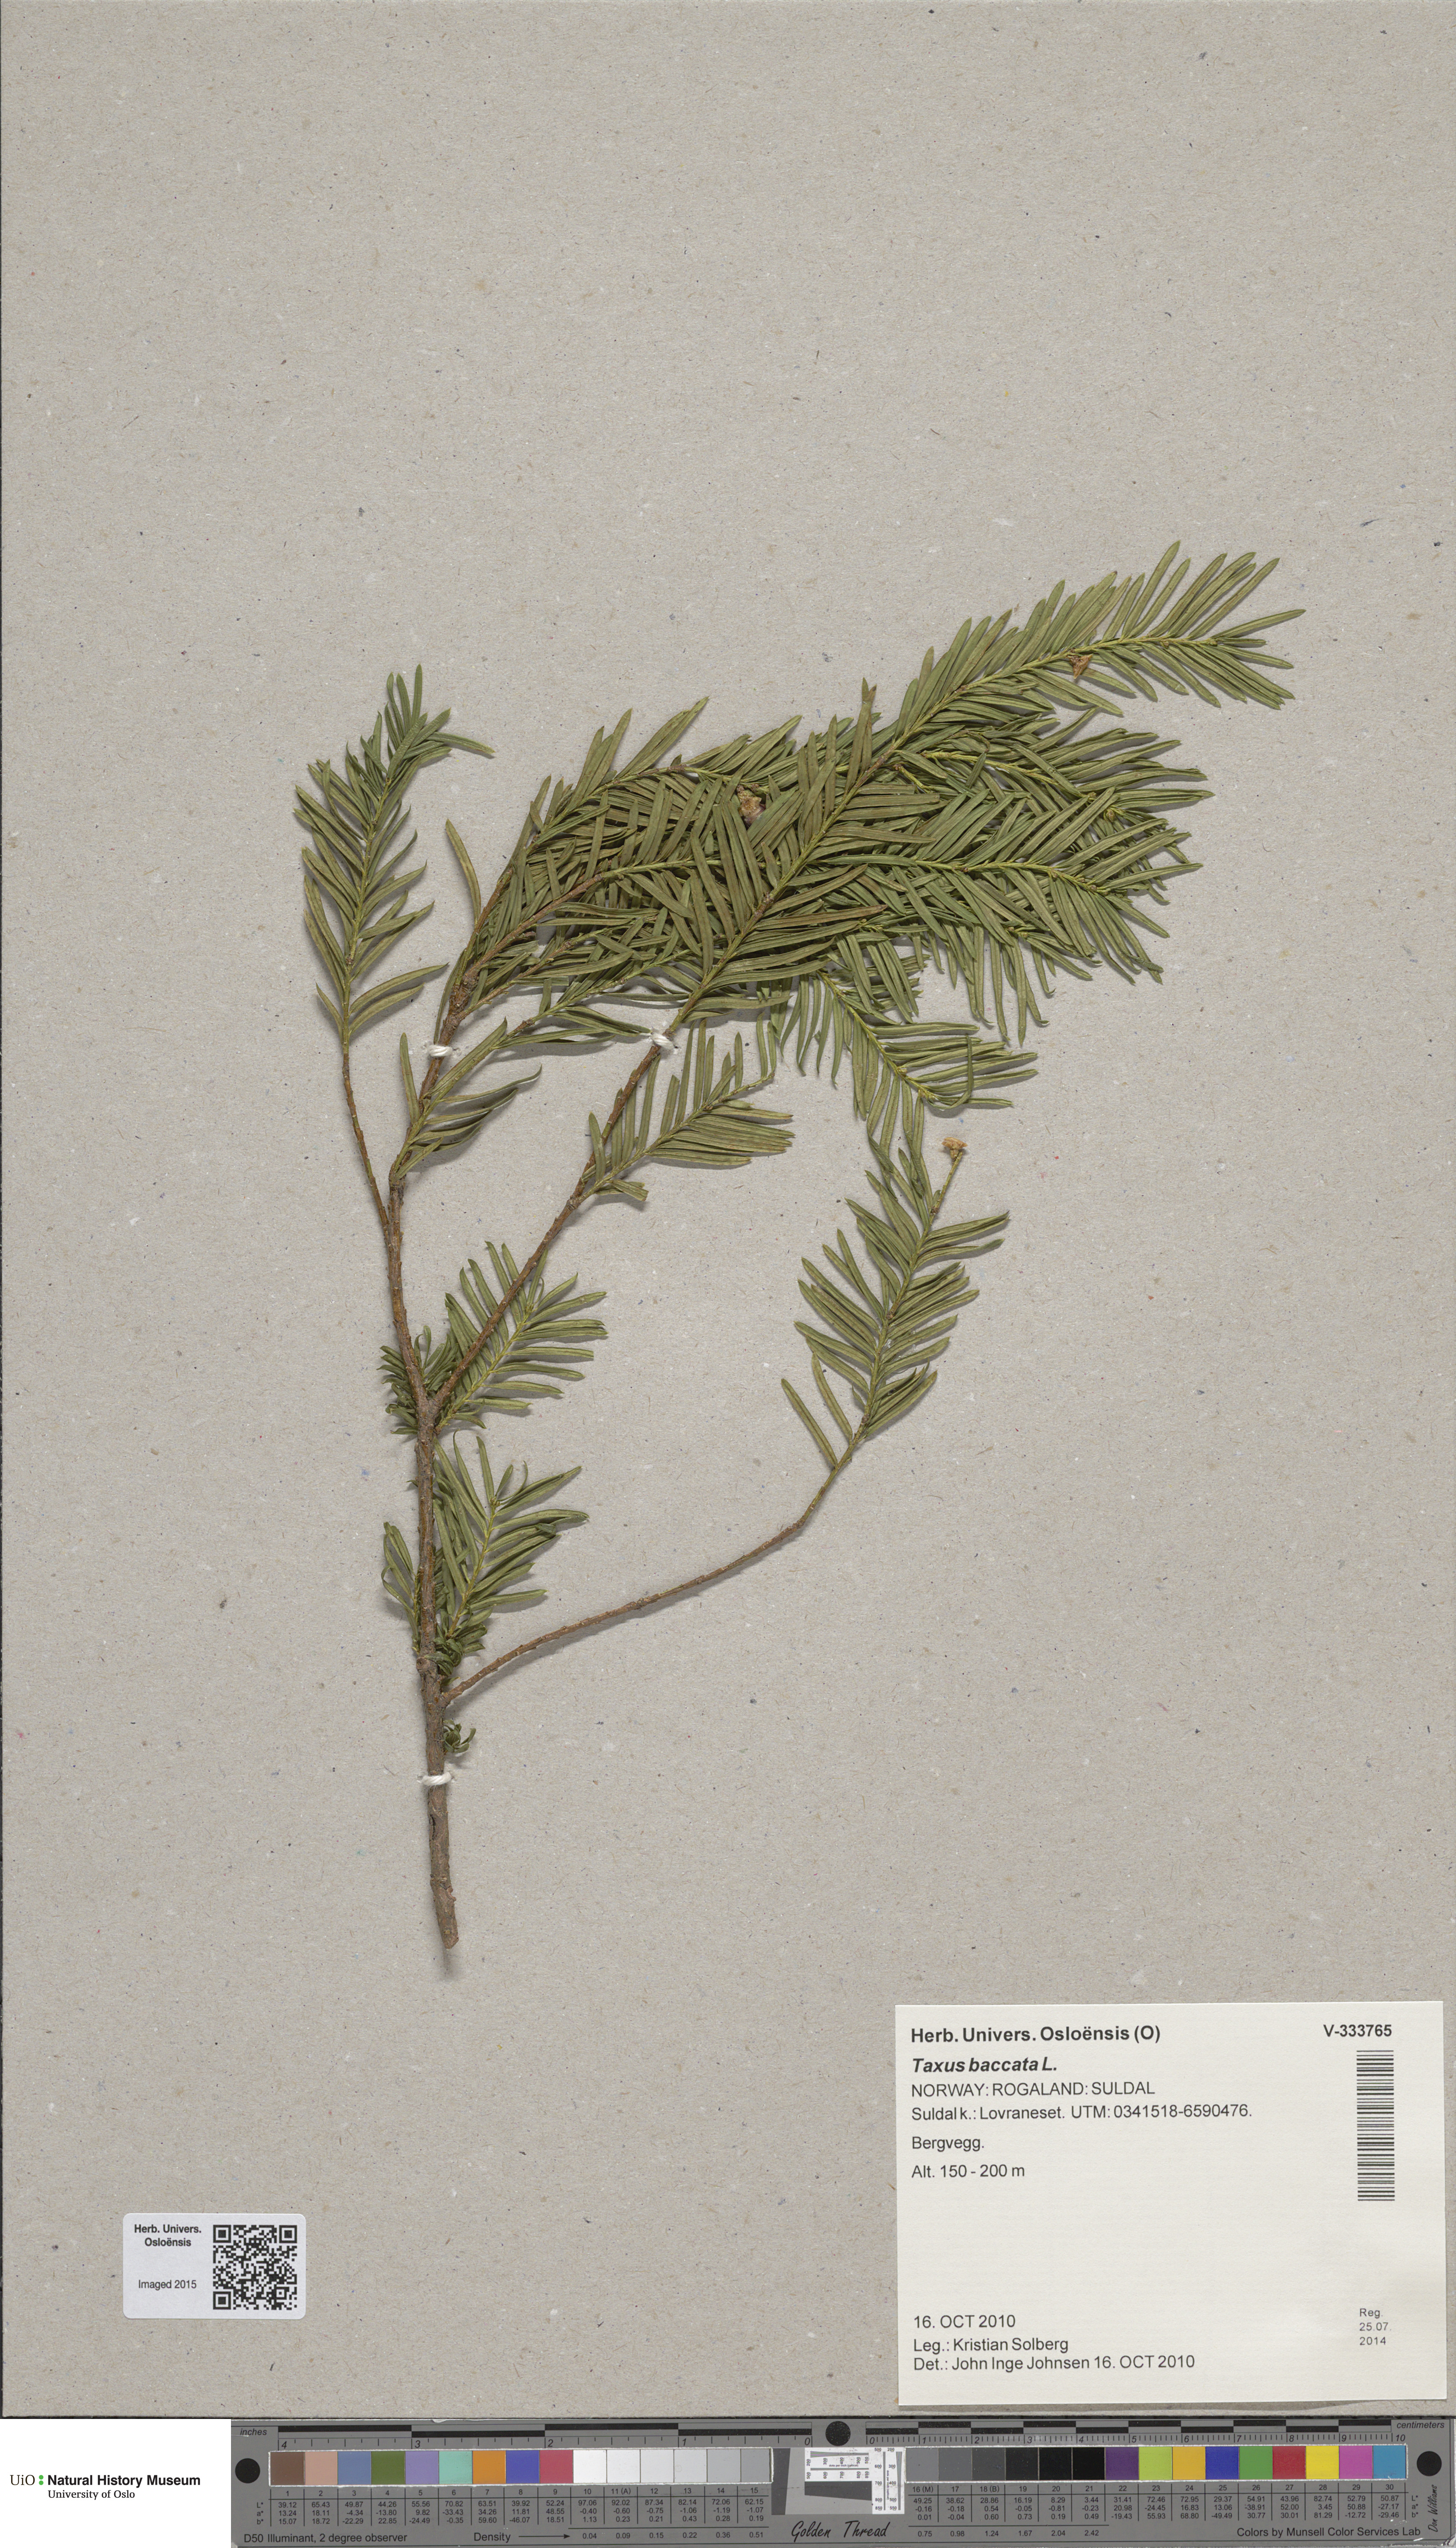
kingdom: Plantae
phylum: Tracheophyta
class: Pinopsida
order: Pinales
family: Taxaceae
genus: Taxus
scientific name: Taxus baccata
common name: Yew
